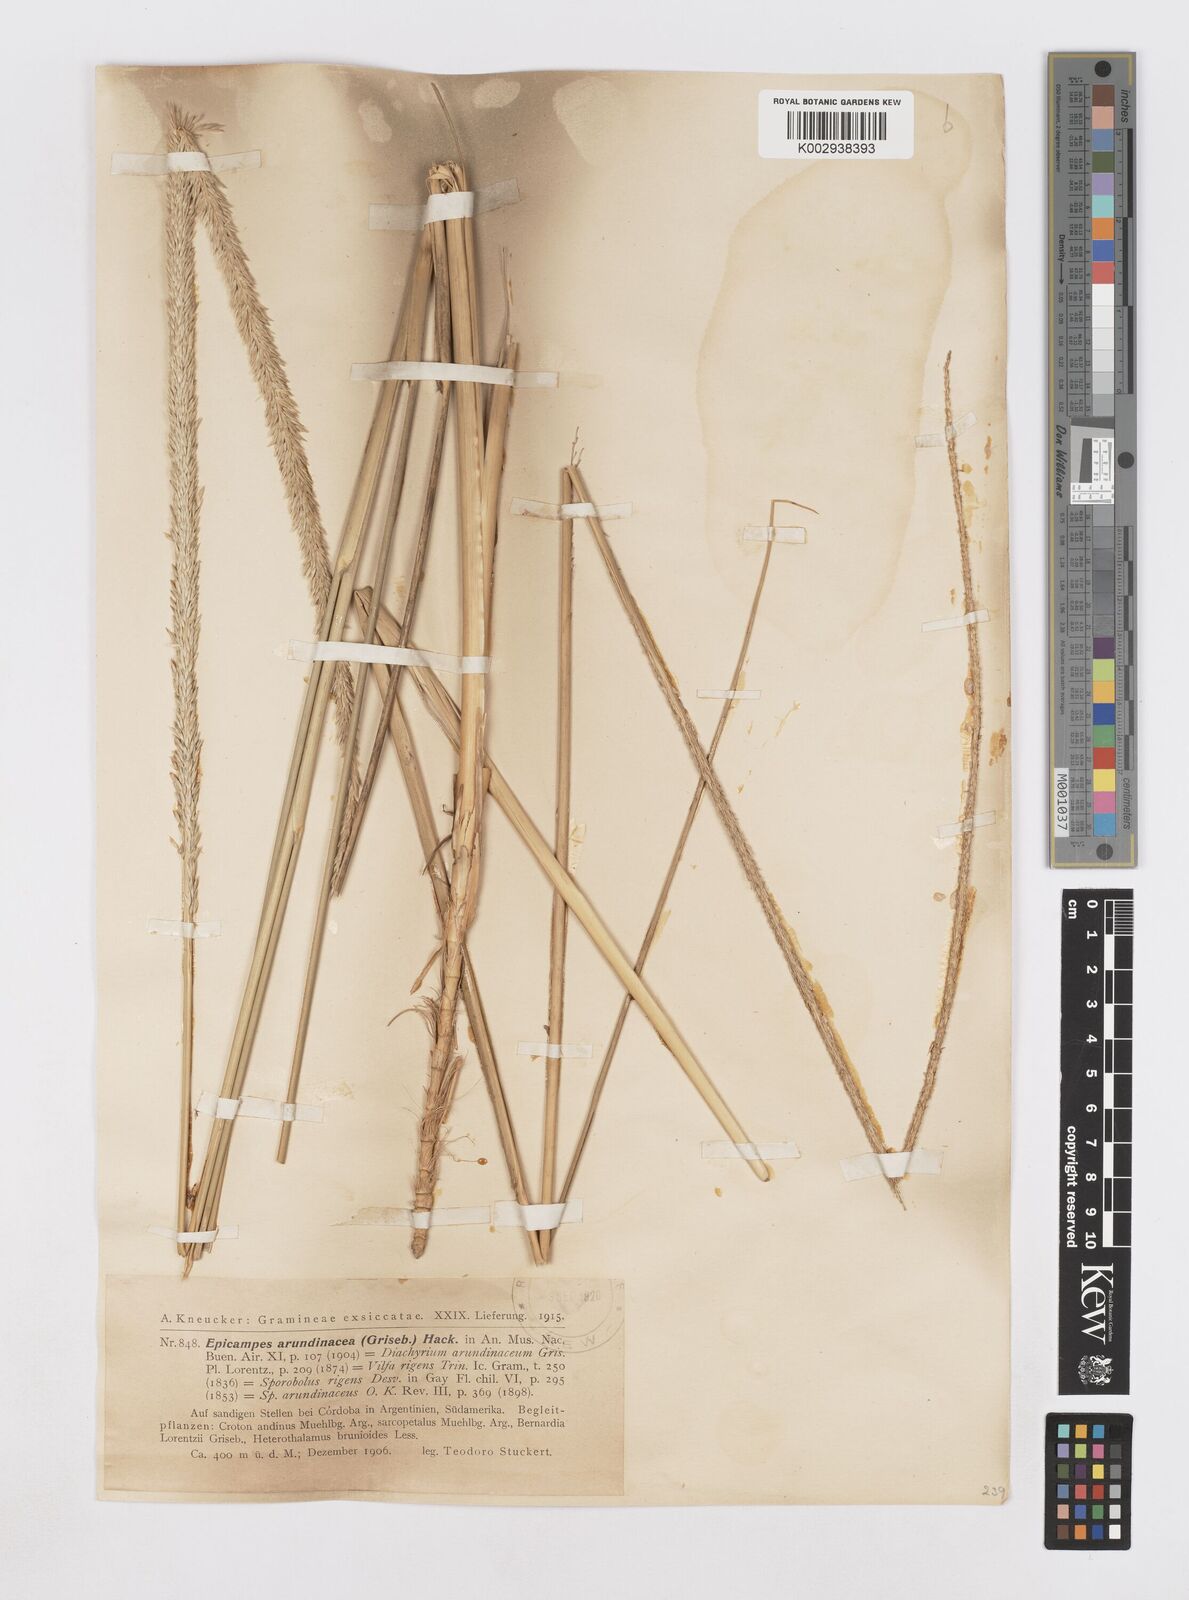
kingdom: Plantae
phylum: Tracheophyta
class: Liliopsida
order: Poales
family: Poaceae
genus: Sporobolus
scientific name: Sporobolus rigens
